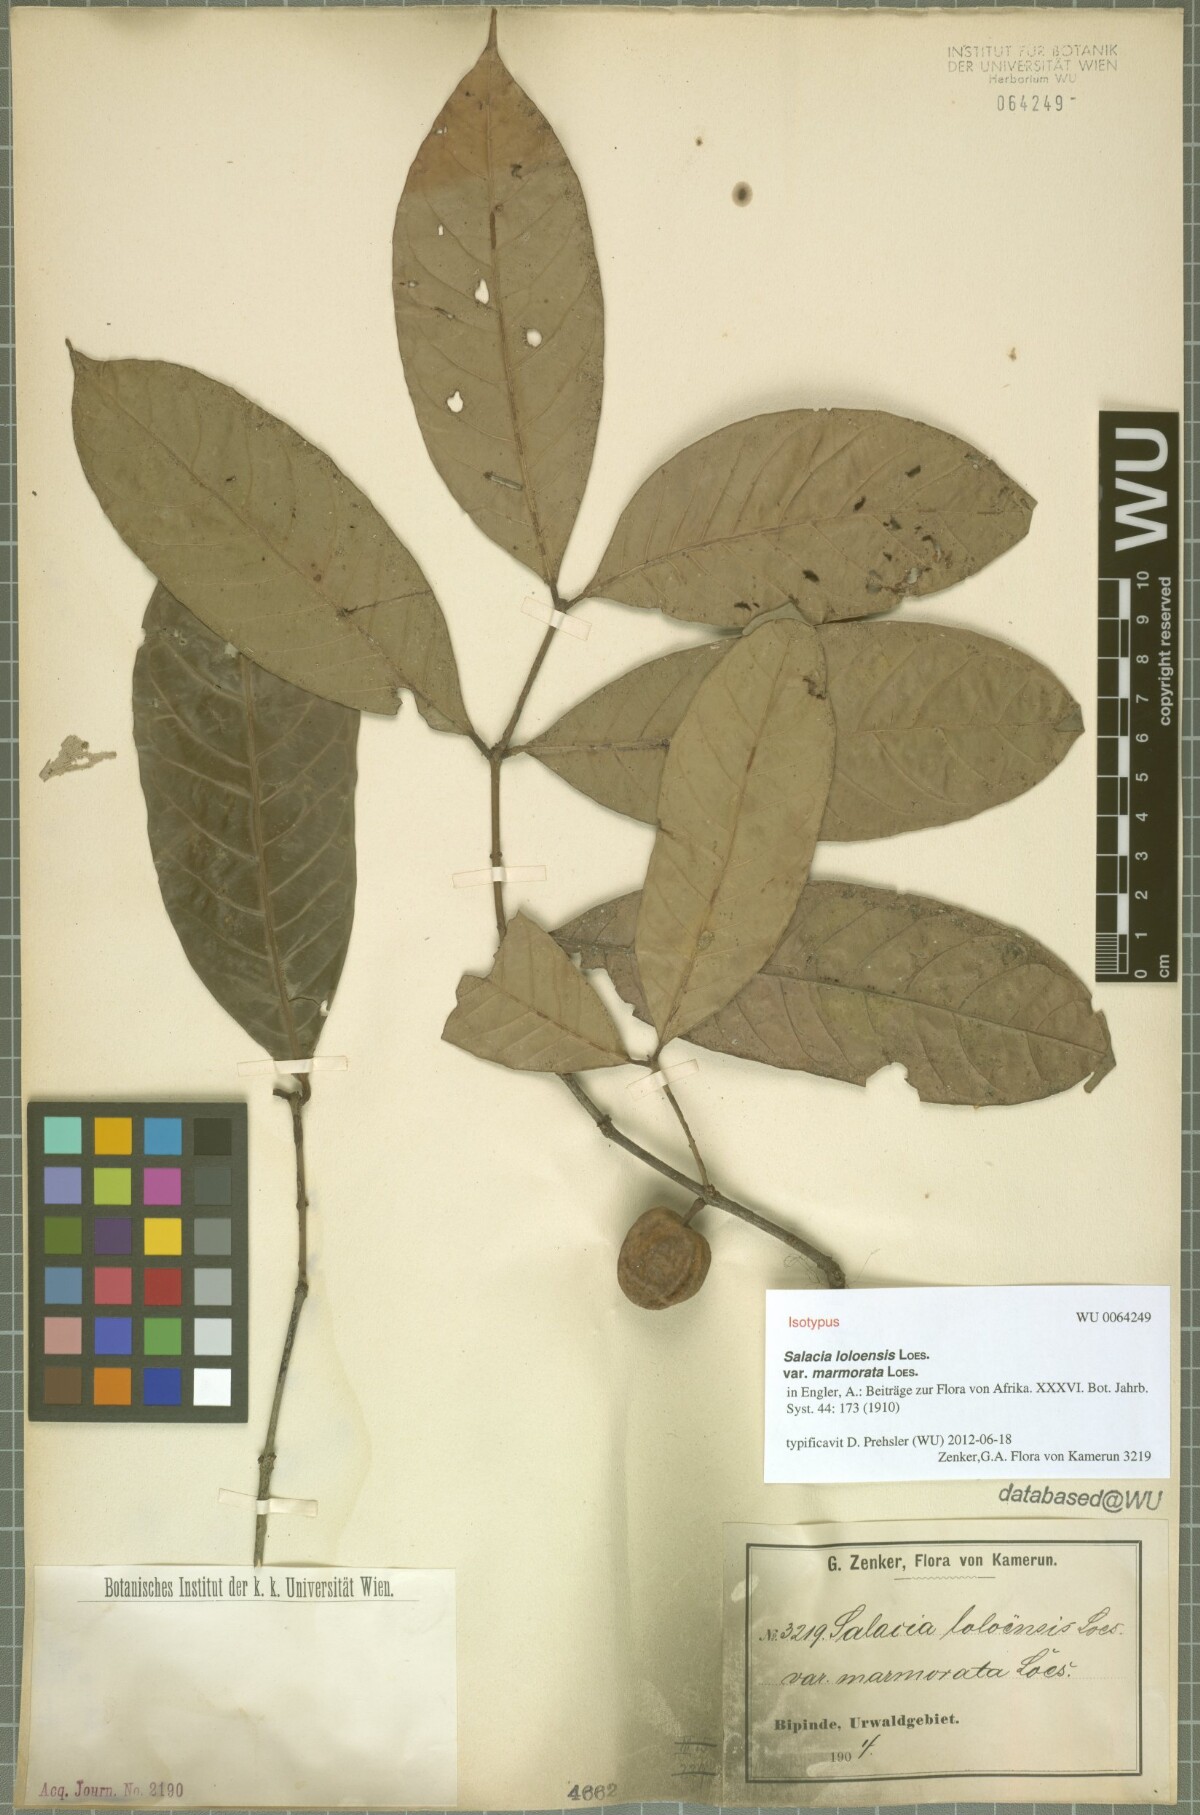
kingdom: Plantae
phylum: Tracheophyta
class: Magnoliopsida
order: Celastrales
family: Celastraceae
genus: Salacia
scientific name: Salacia loloensis
